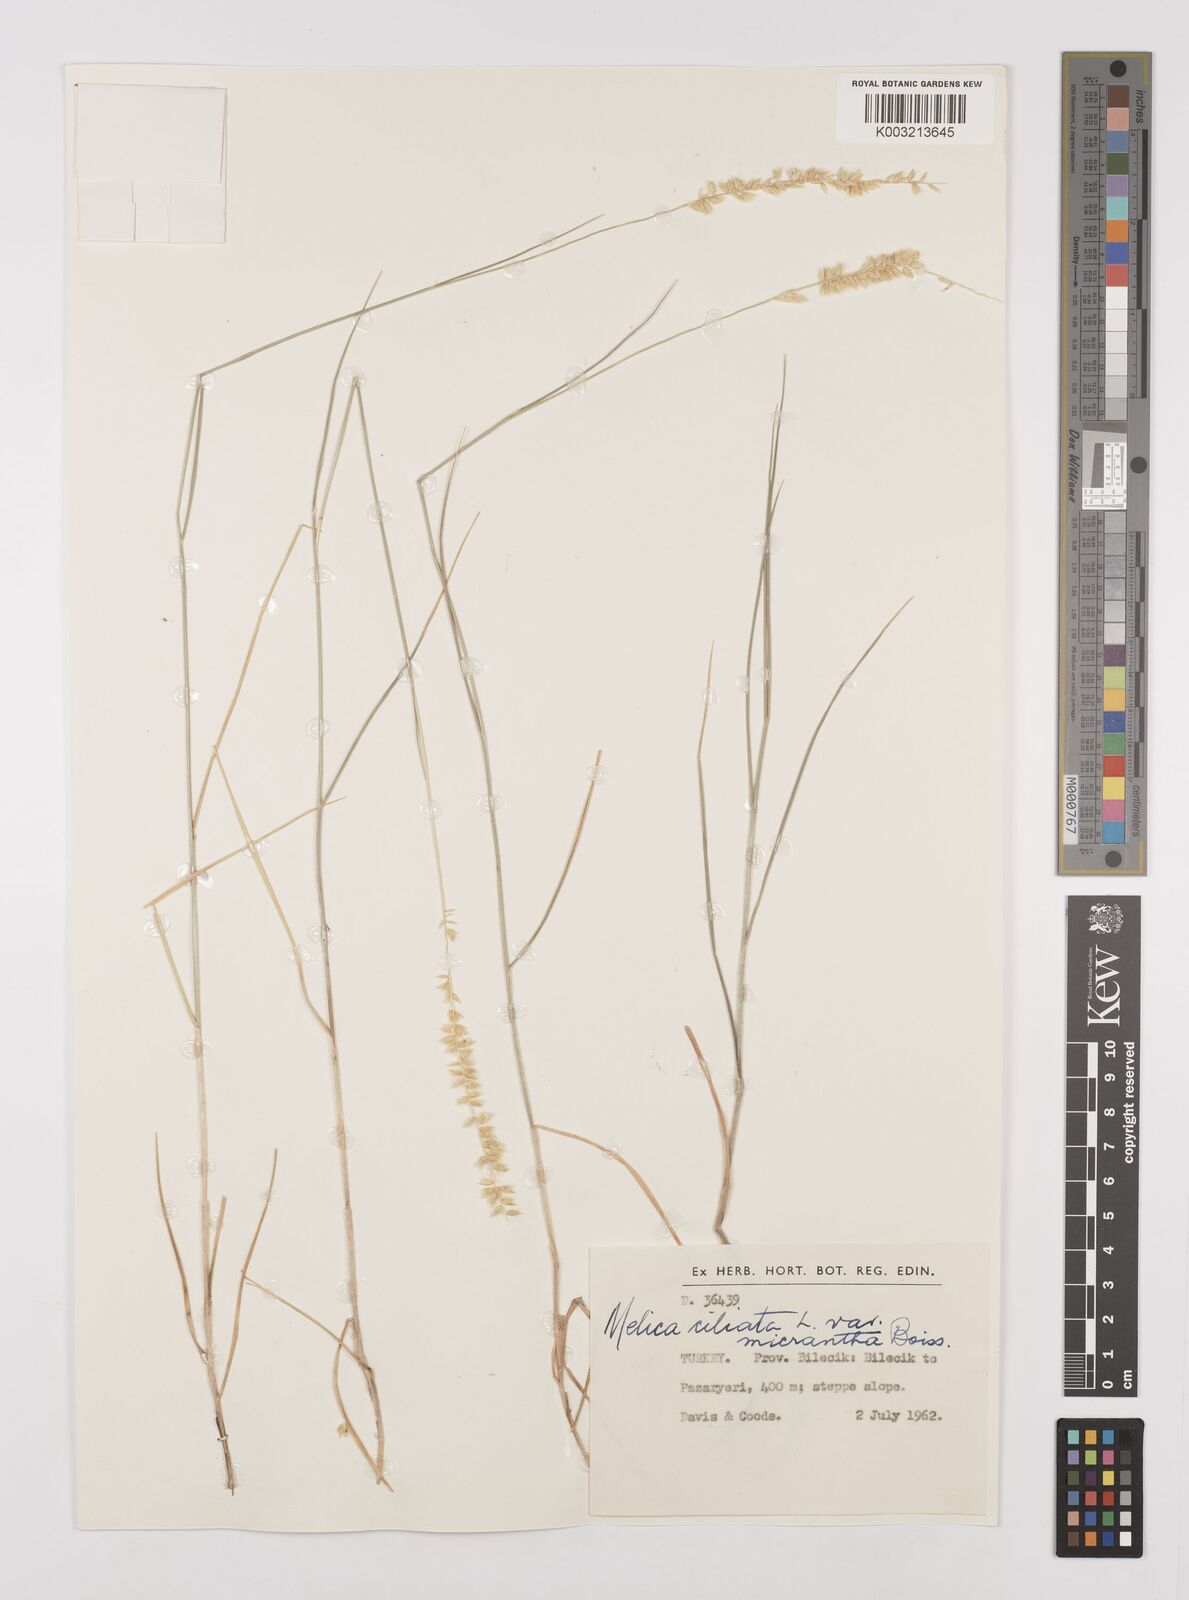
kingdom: Plantae
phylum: Tracheophyta
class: Liliopsida
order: Poales
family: Poaceae
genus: Melica
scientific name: Melica ciliata
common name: Hairy melicgrass
